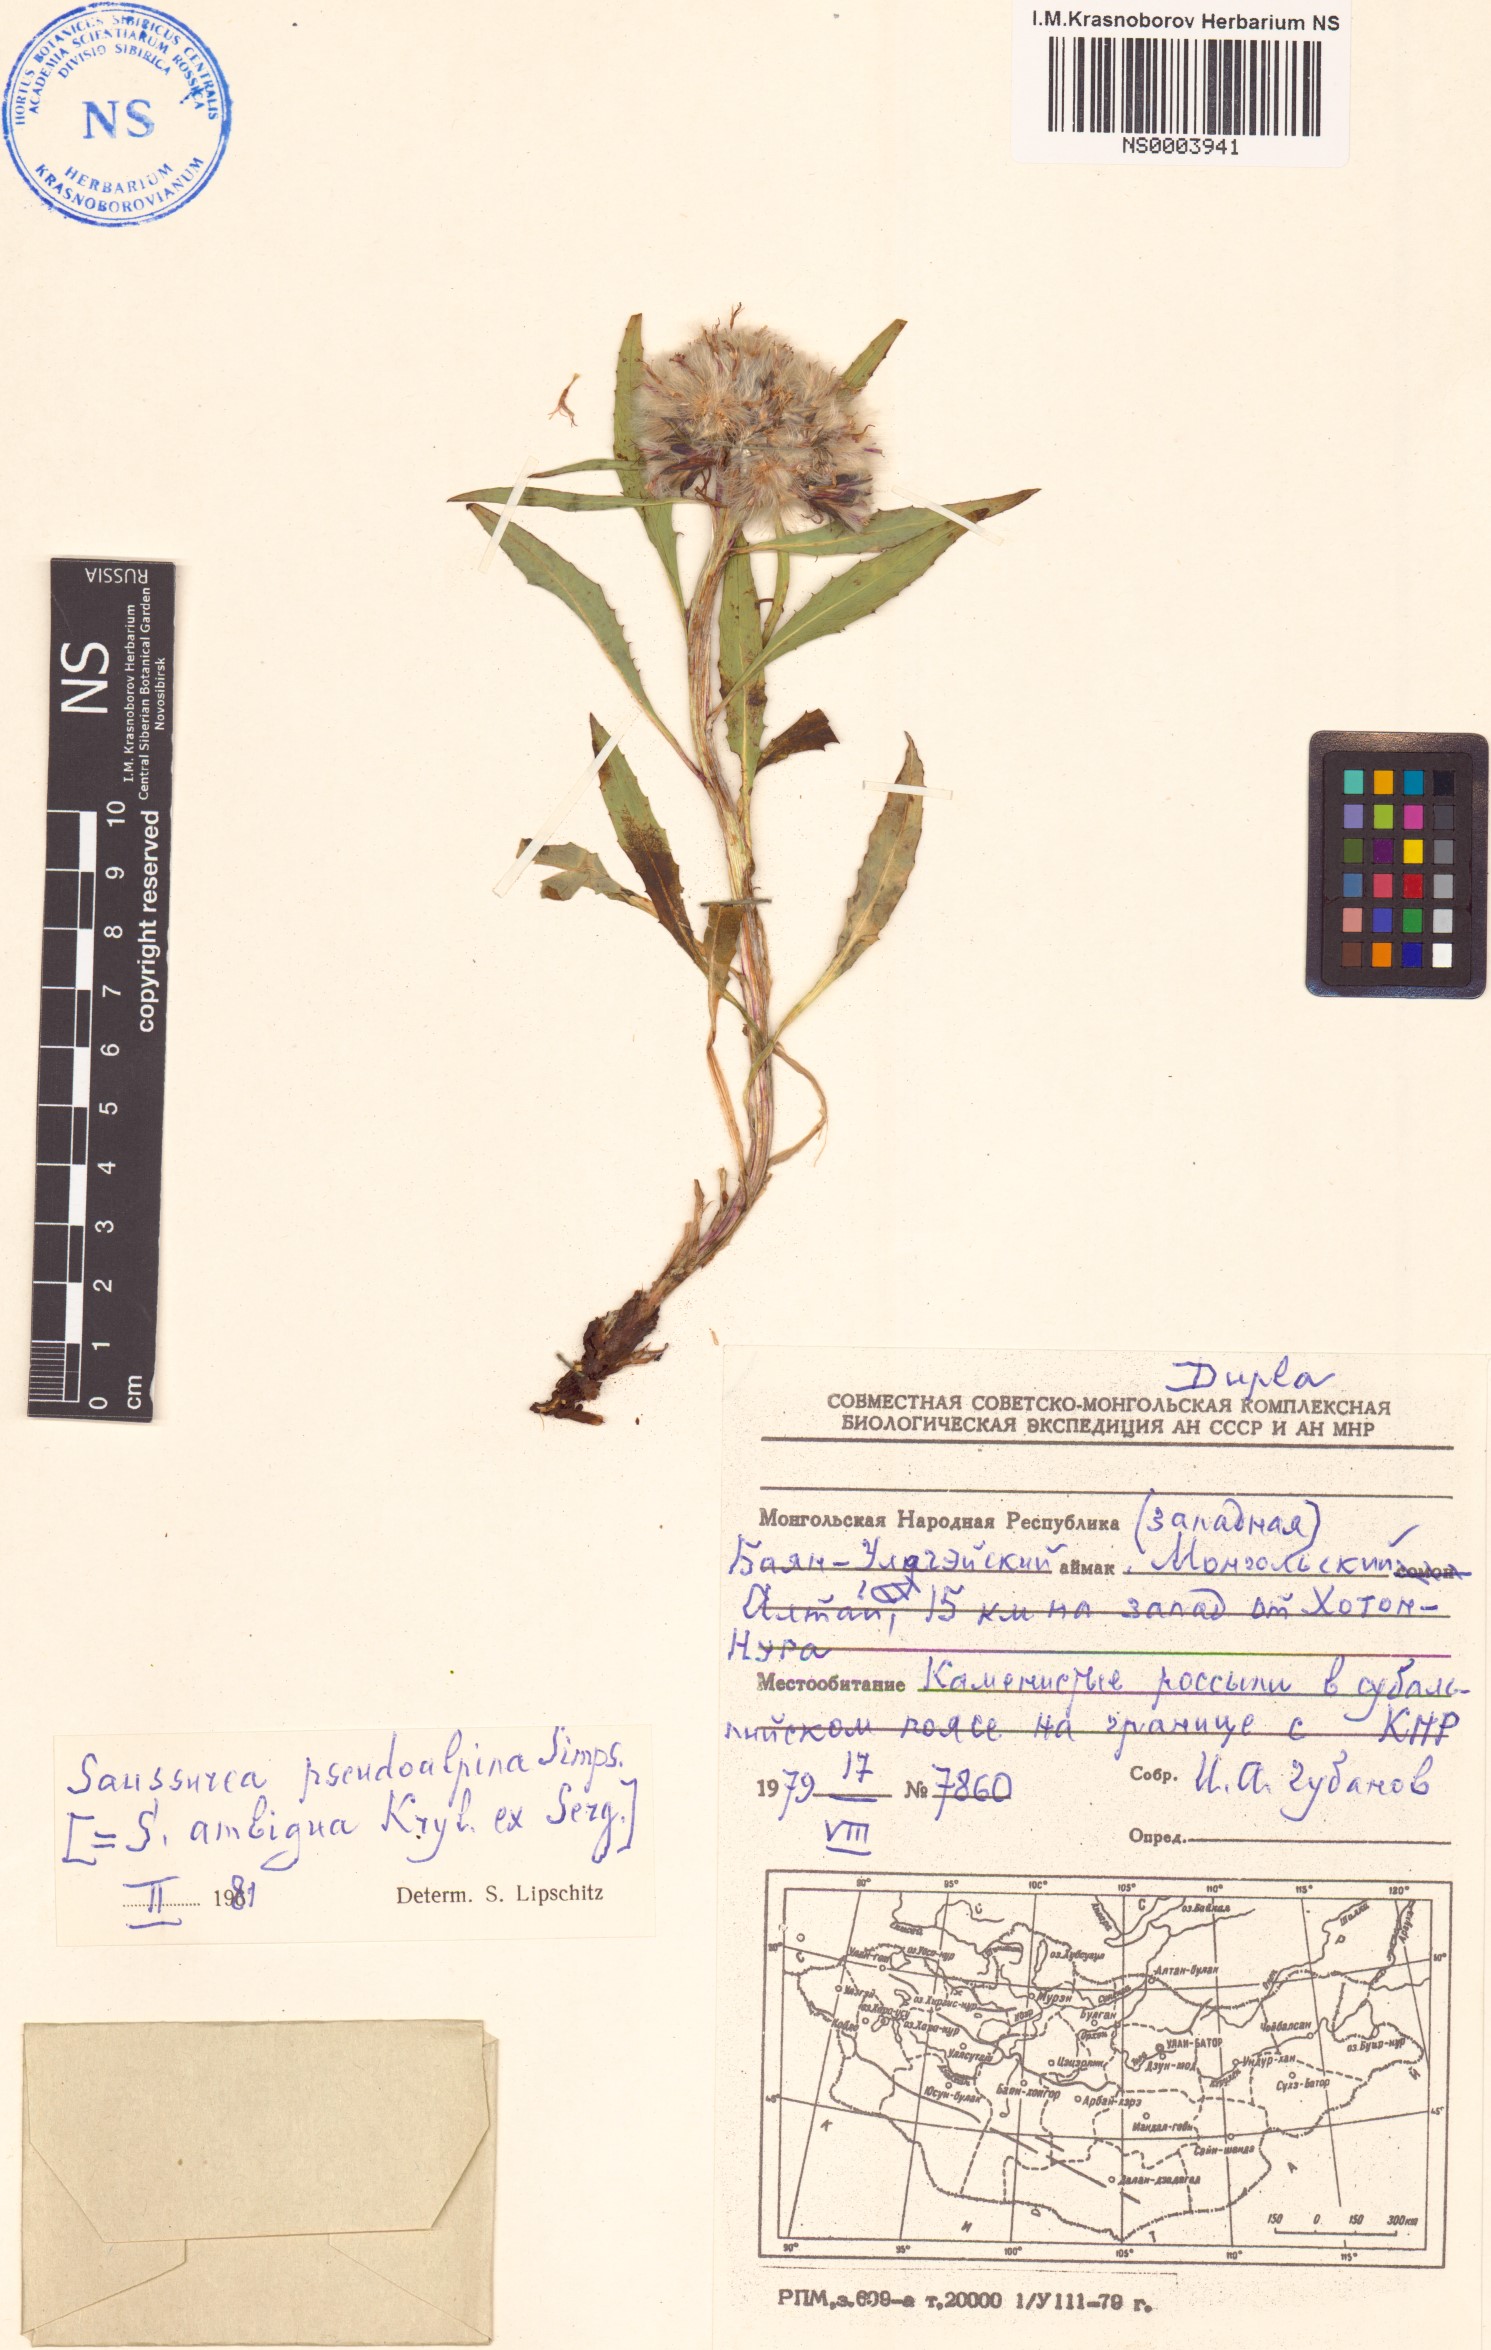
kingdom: Plantae
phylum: Tracheophyta
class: Magnoliopsida
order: Asterales
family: Asteraceae
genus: Saussurea
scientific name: Saussurea pseudoalpina
